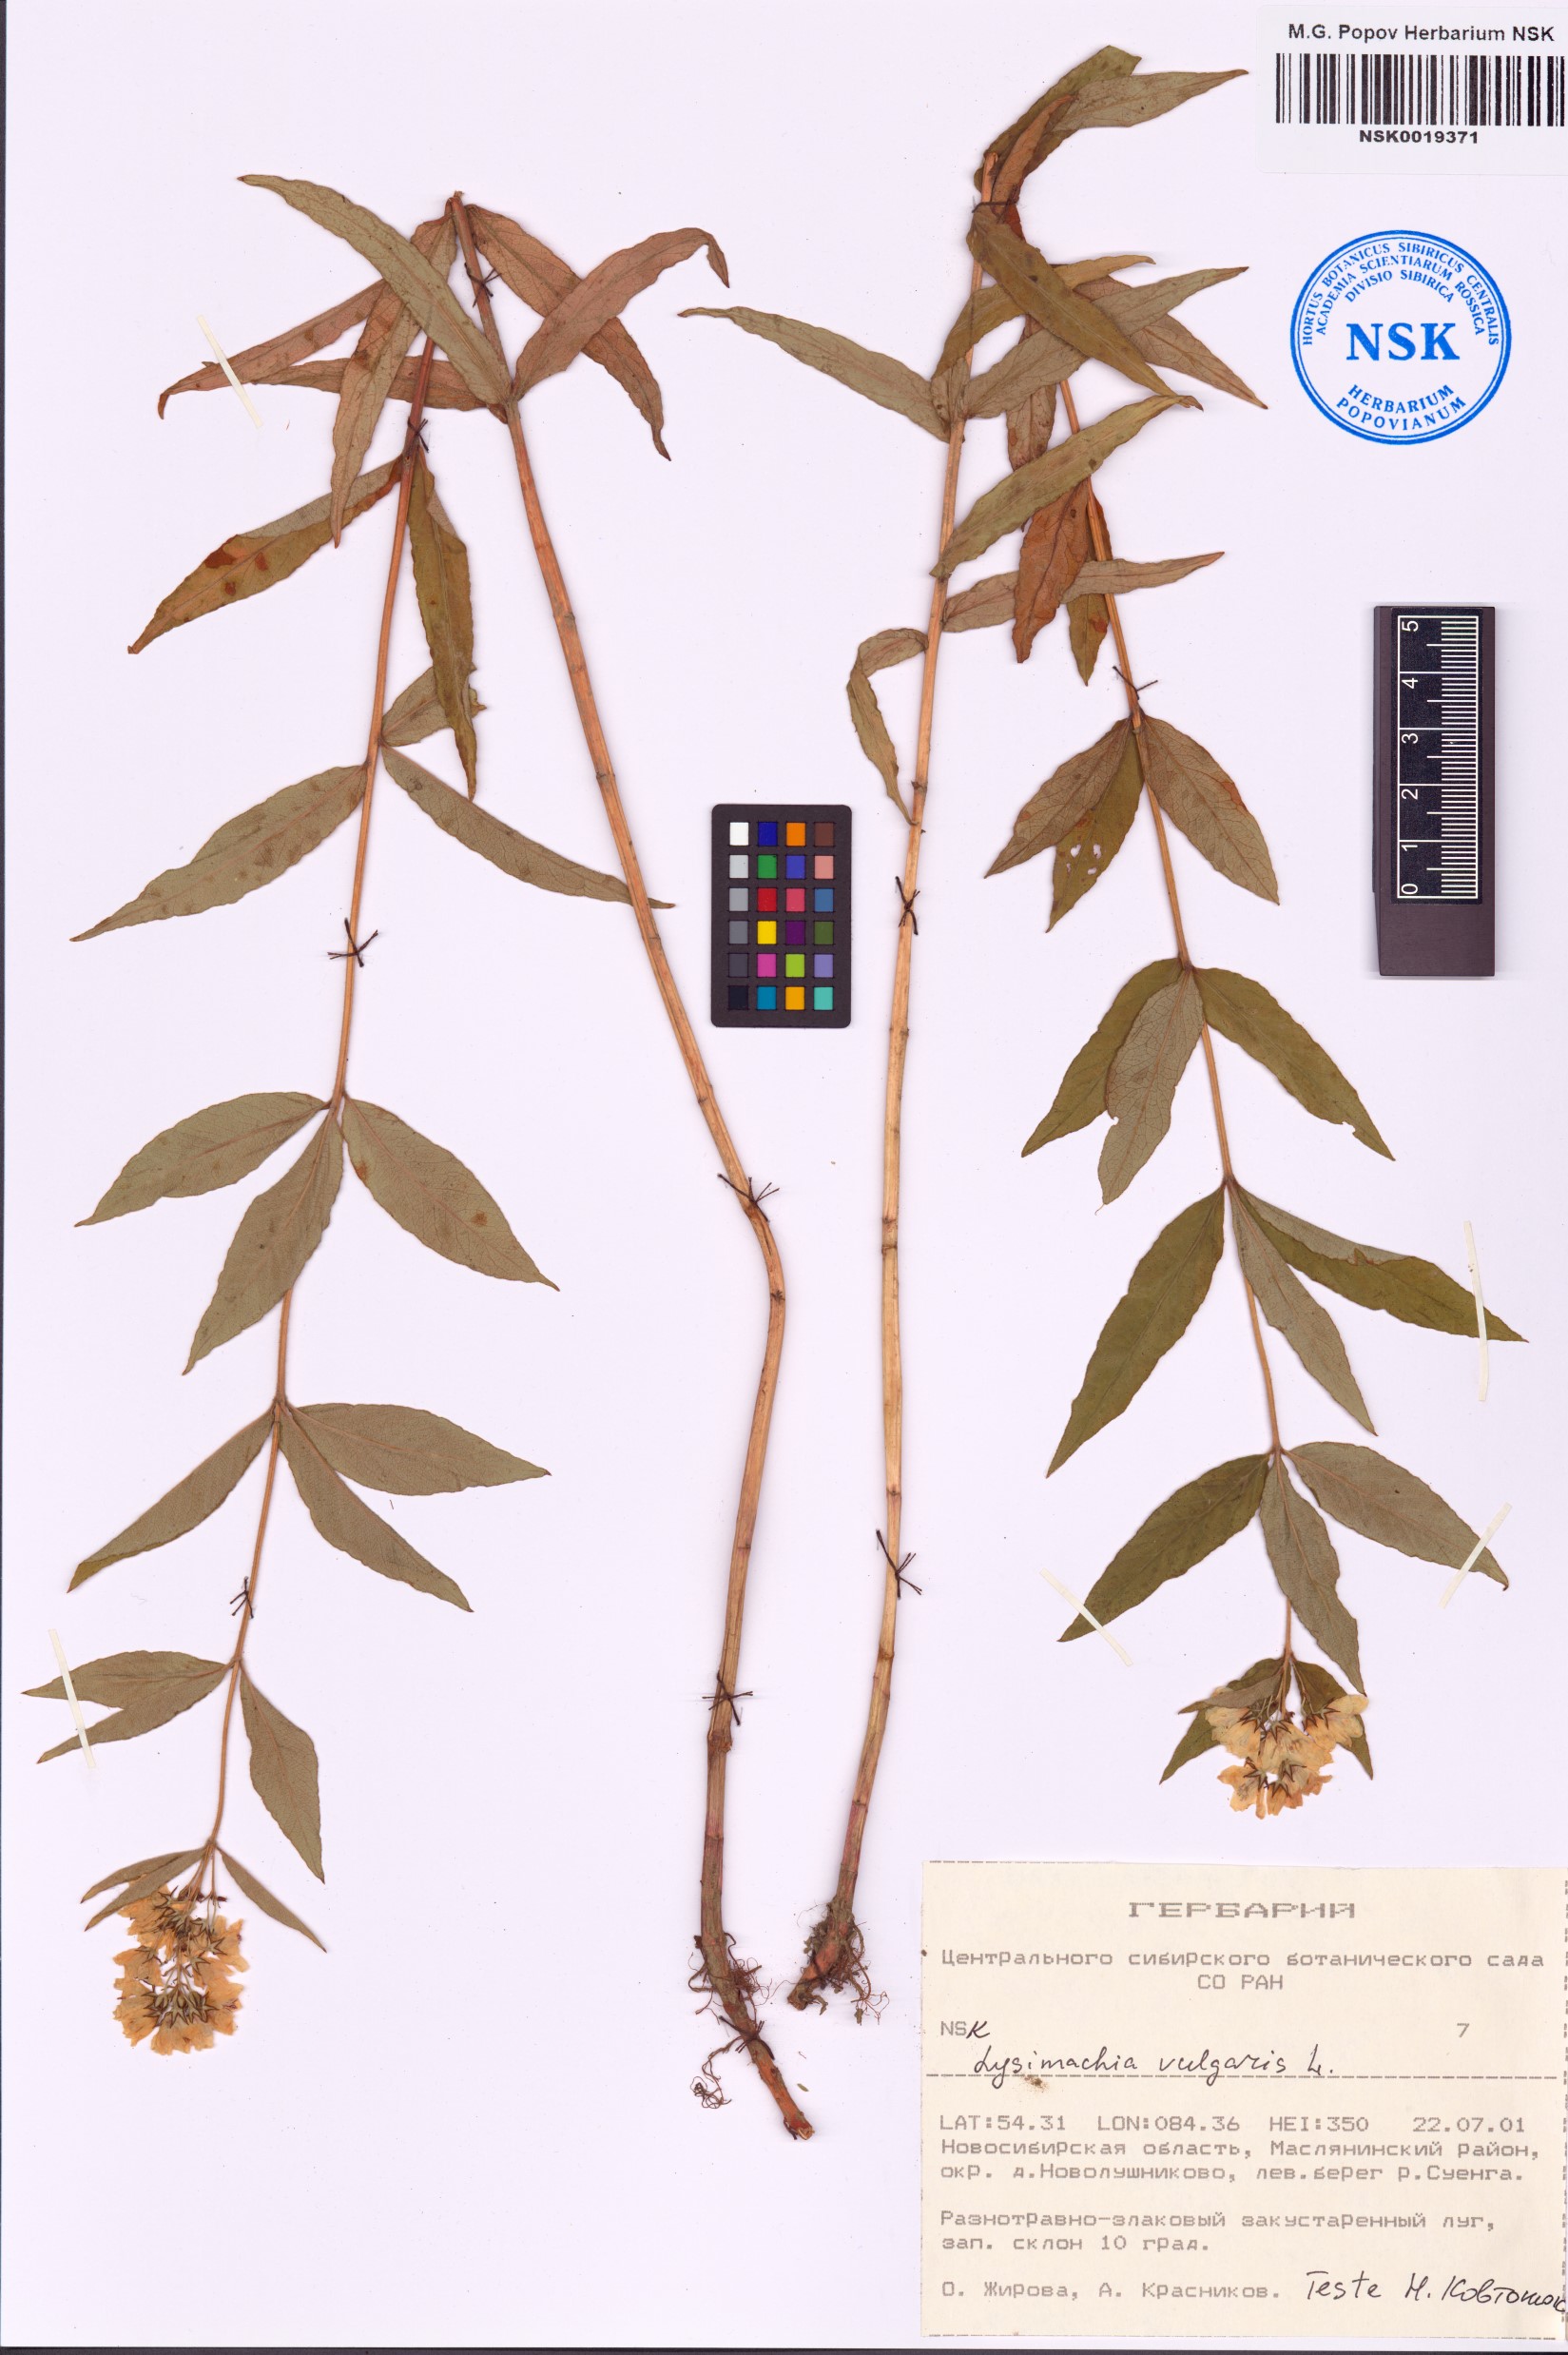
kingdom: Plantae
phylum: Tracheophyta
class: Magnoliopsida
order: Ericales
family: Primulaceae
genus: Lysimachia
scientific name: Lysimachia vulgaris
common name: Yellow loosestrife
